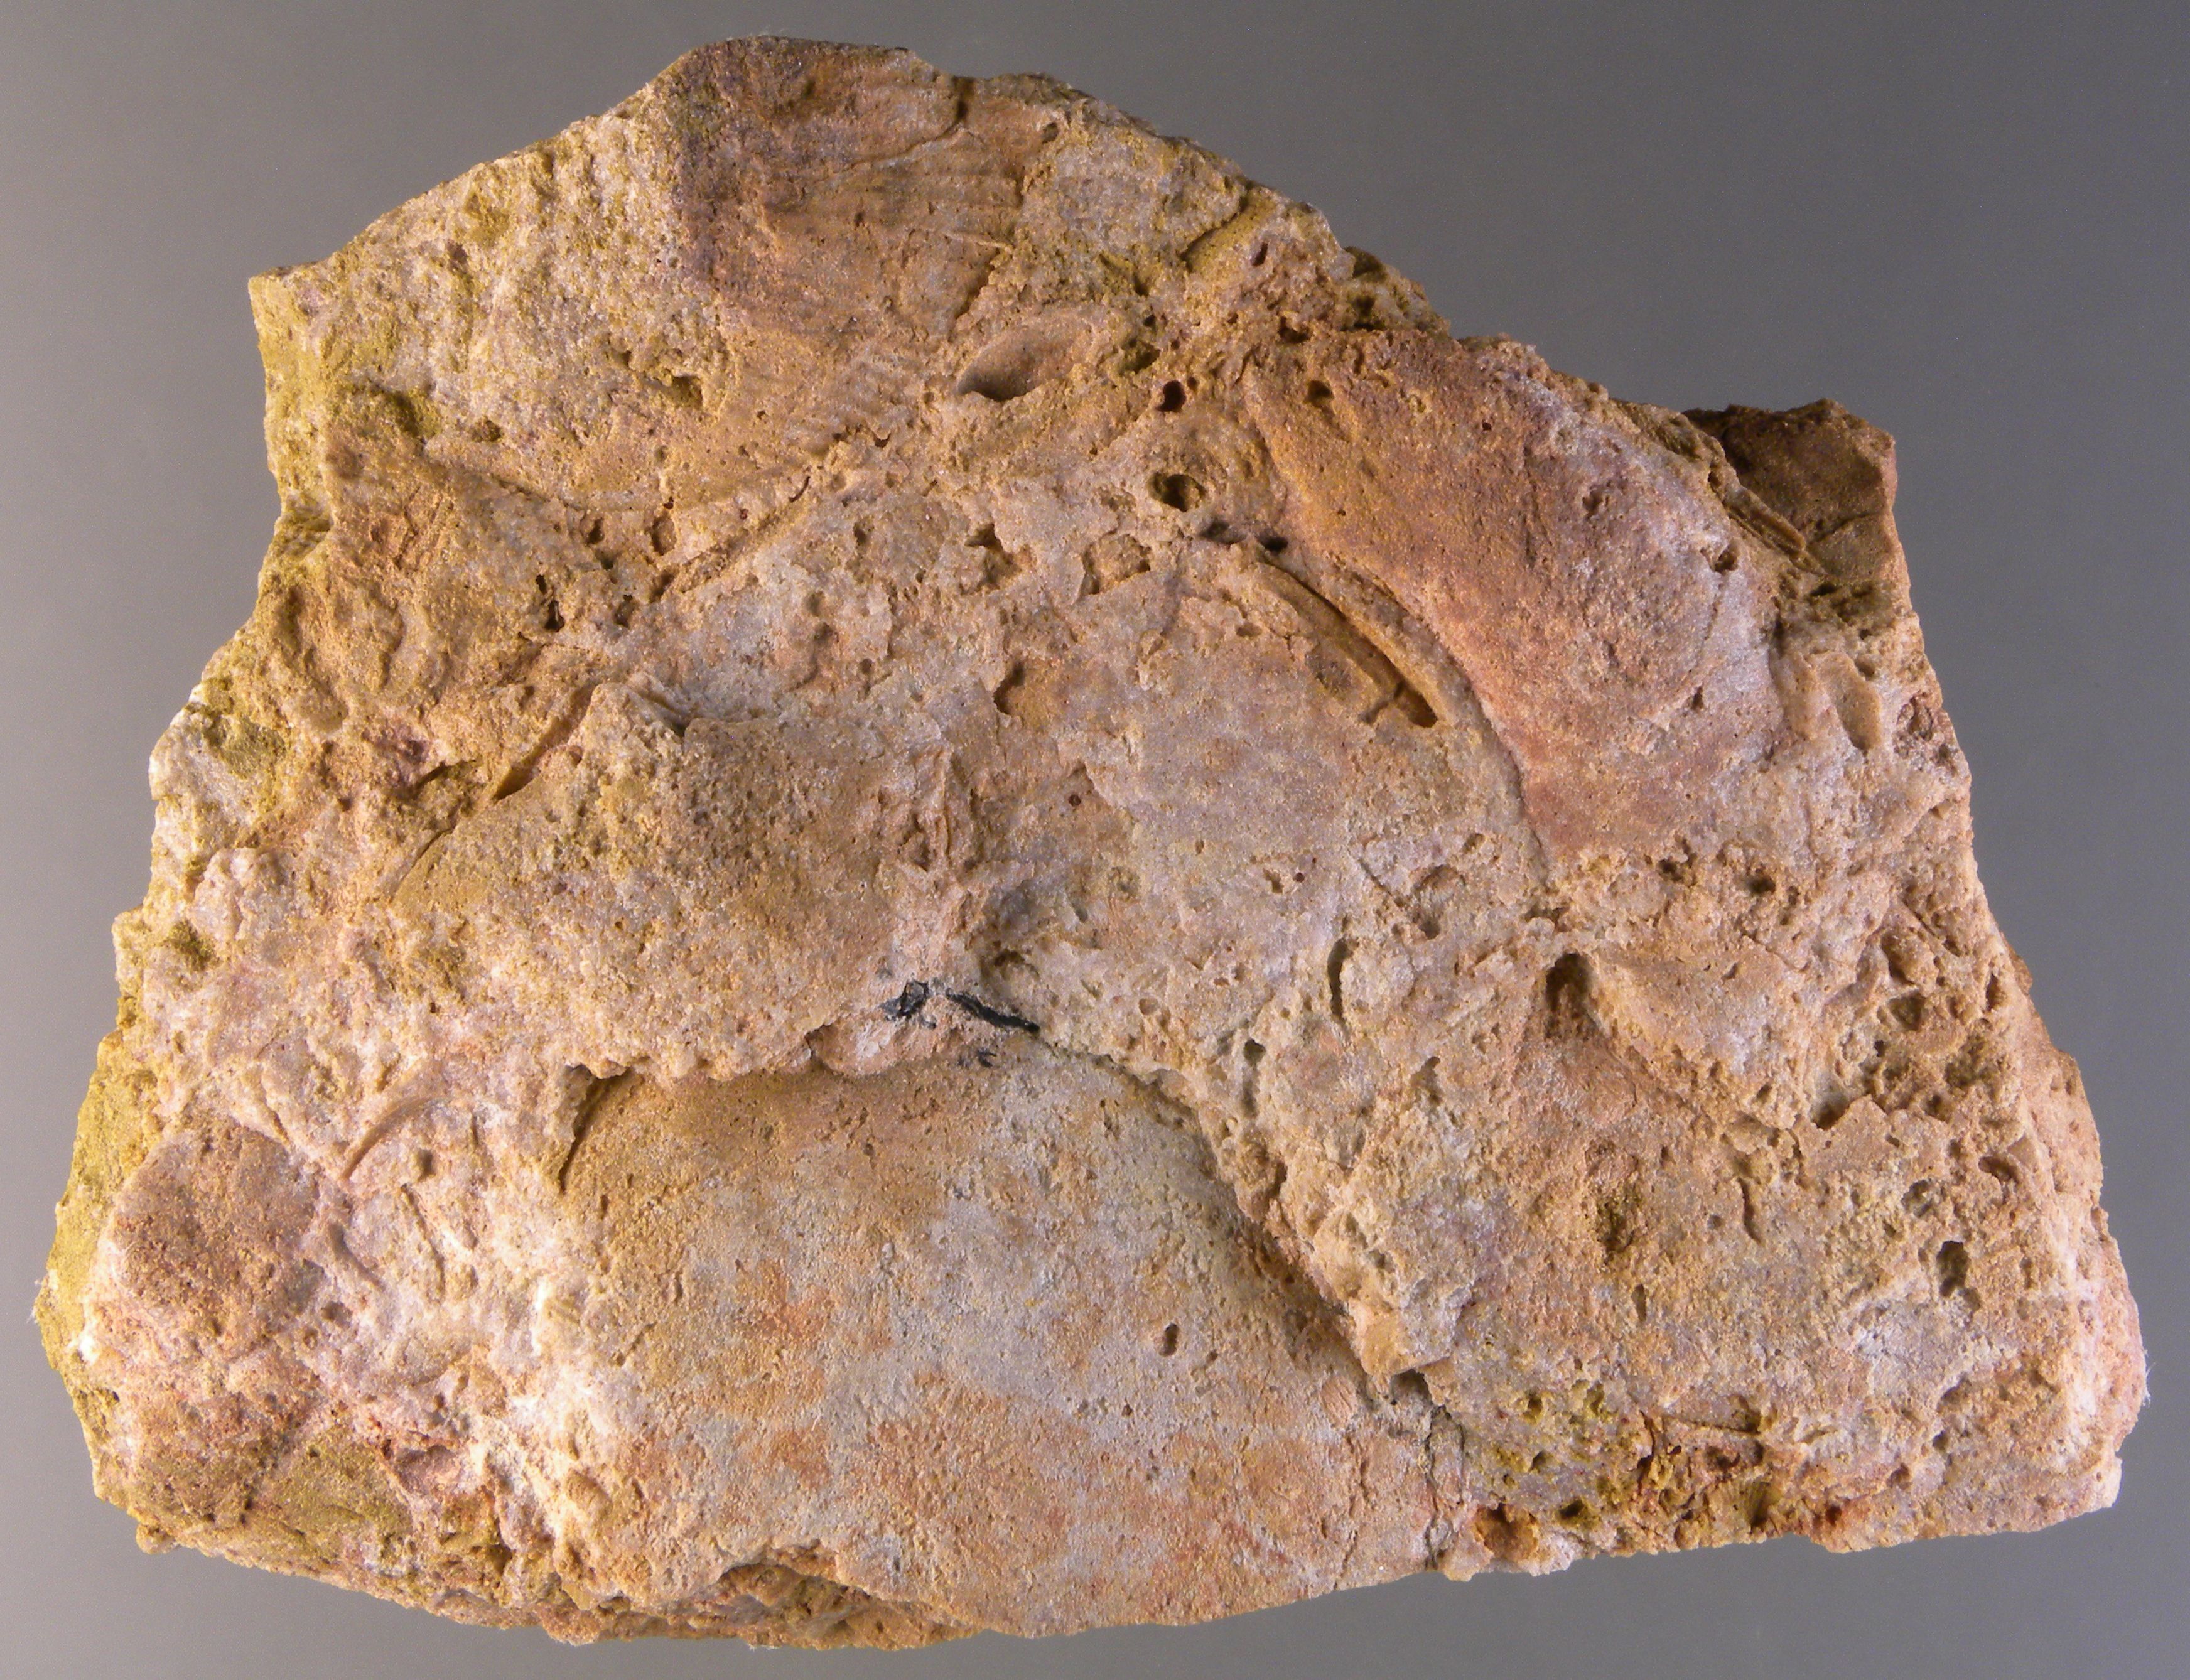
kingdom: Animalia
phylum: Bryozoa
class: Stenolaemata
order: Cyclostomatida
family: Hederellidae
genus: Hederella
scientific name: Hederella
